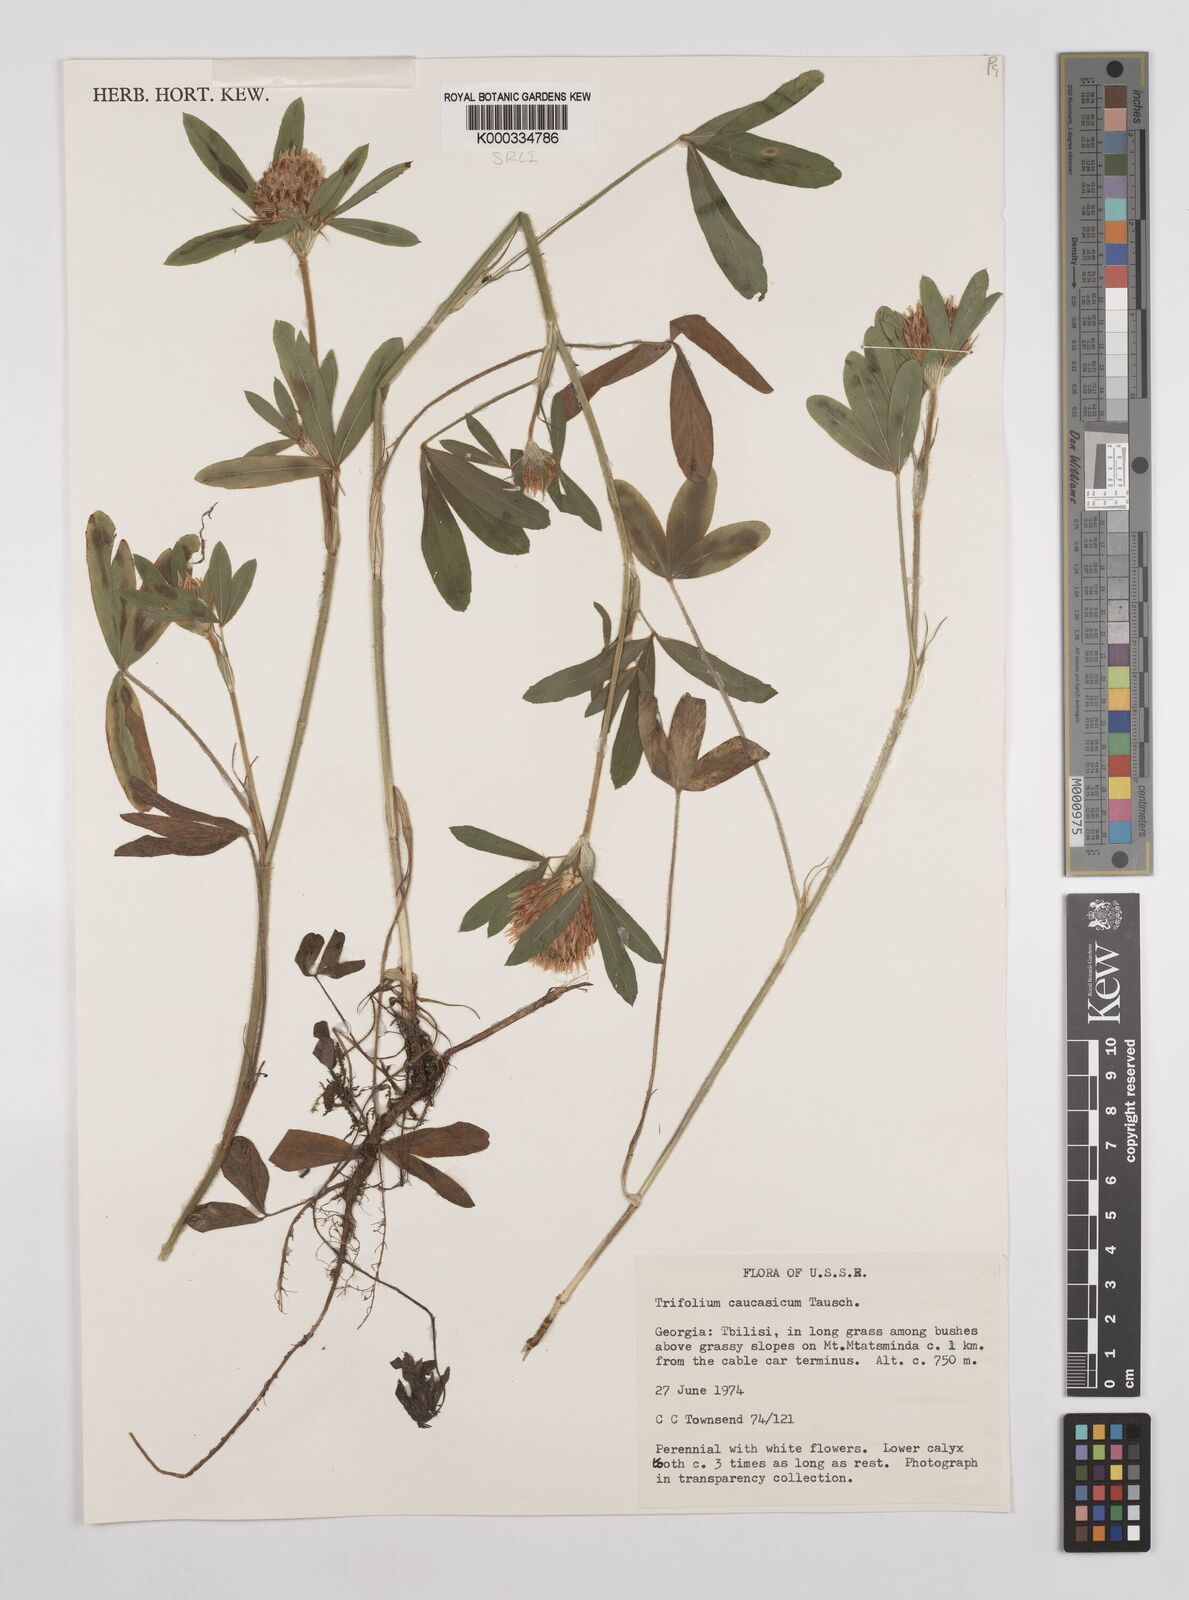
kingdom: Plantae
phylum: Tracheophyta
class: Magnoliopsida
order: Fabales
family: Fabaceae
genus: Trifolium
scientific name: Trifolium ochroleucon
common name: Sulphur clover
